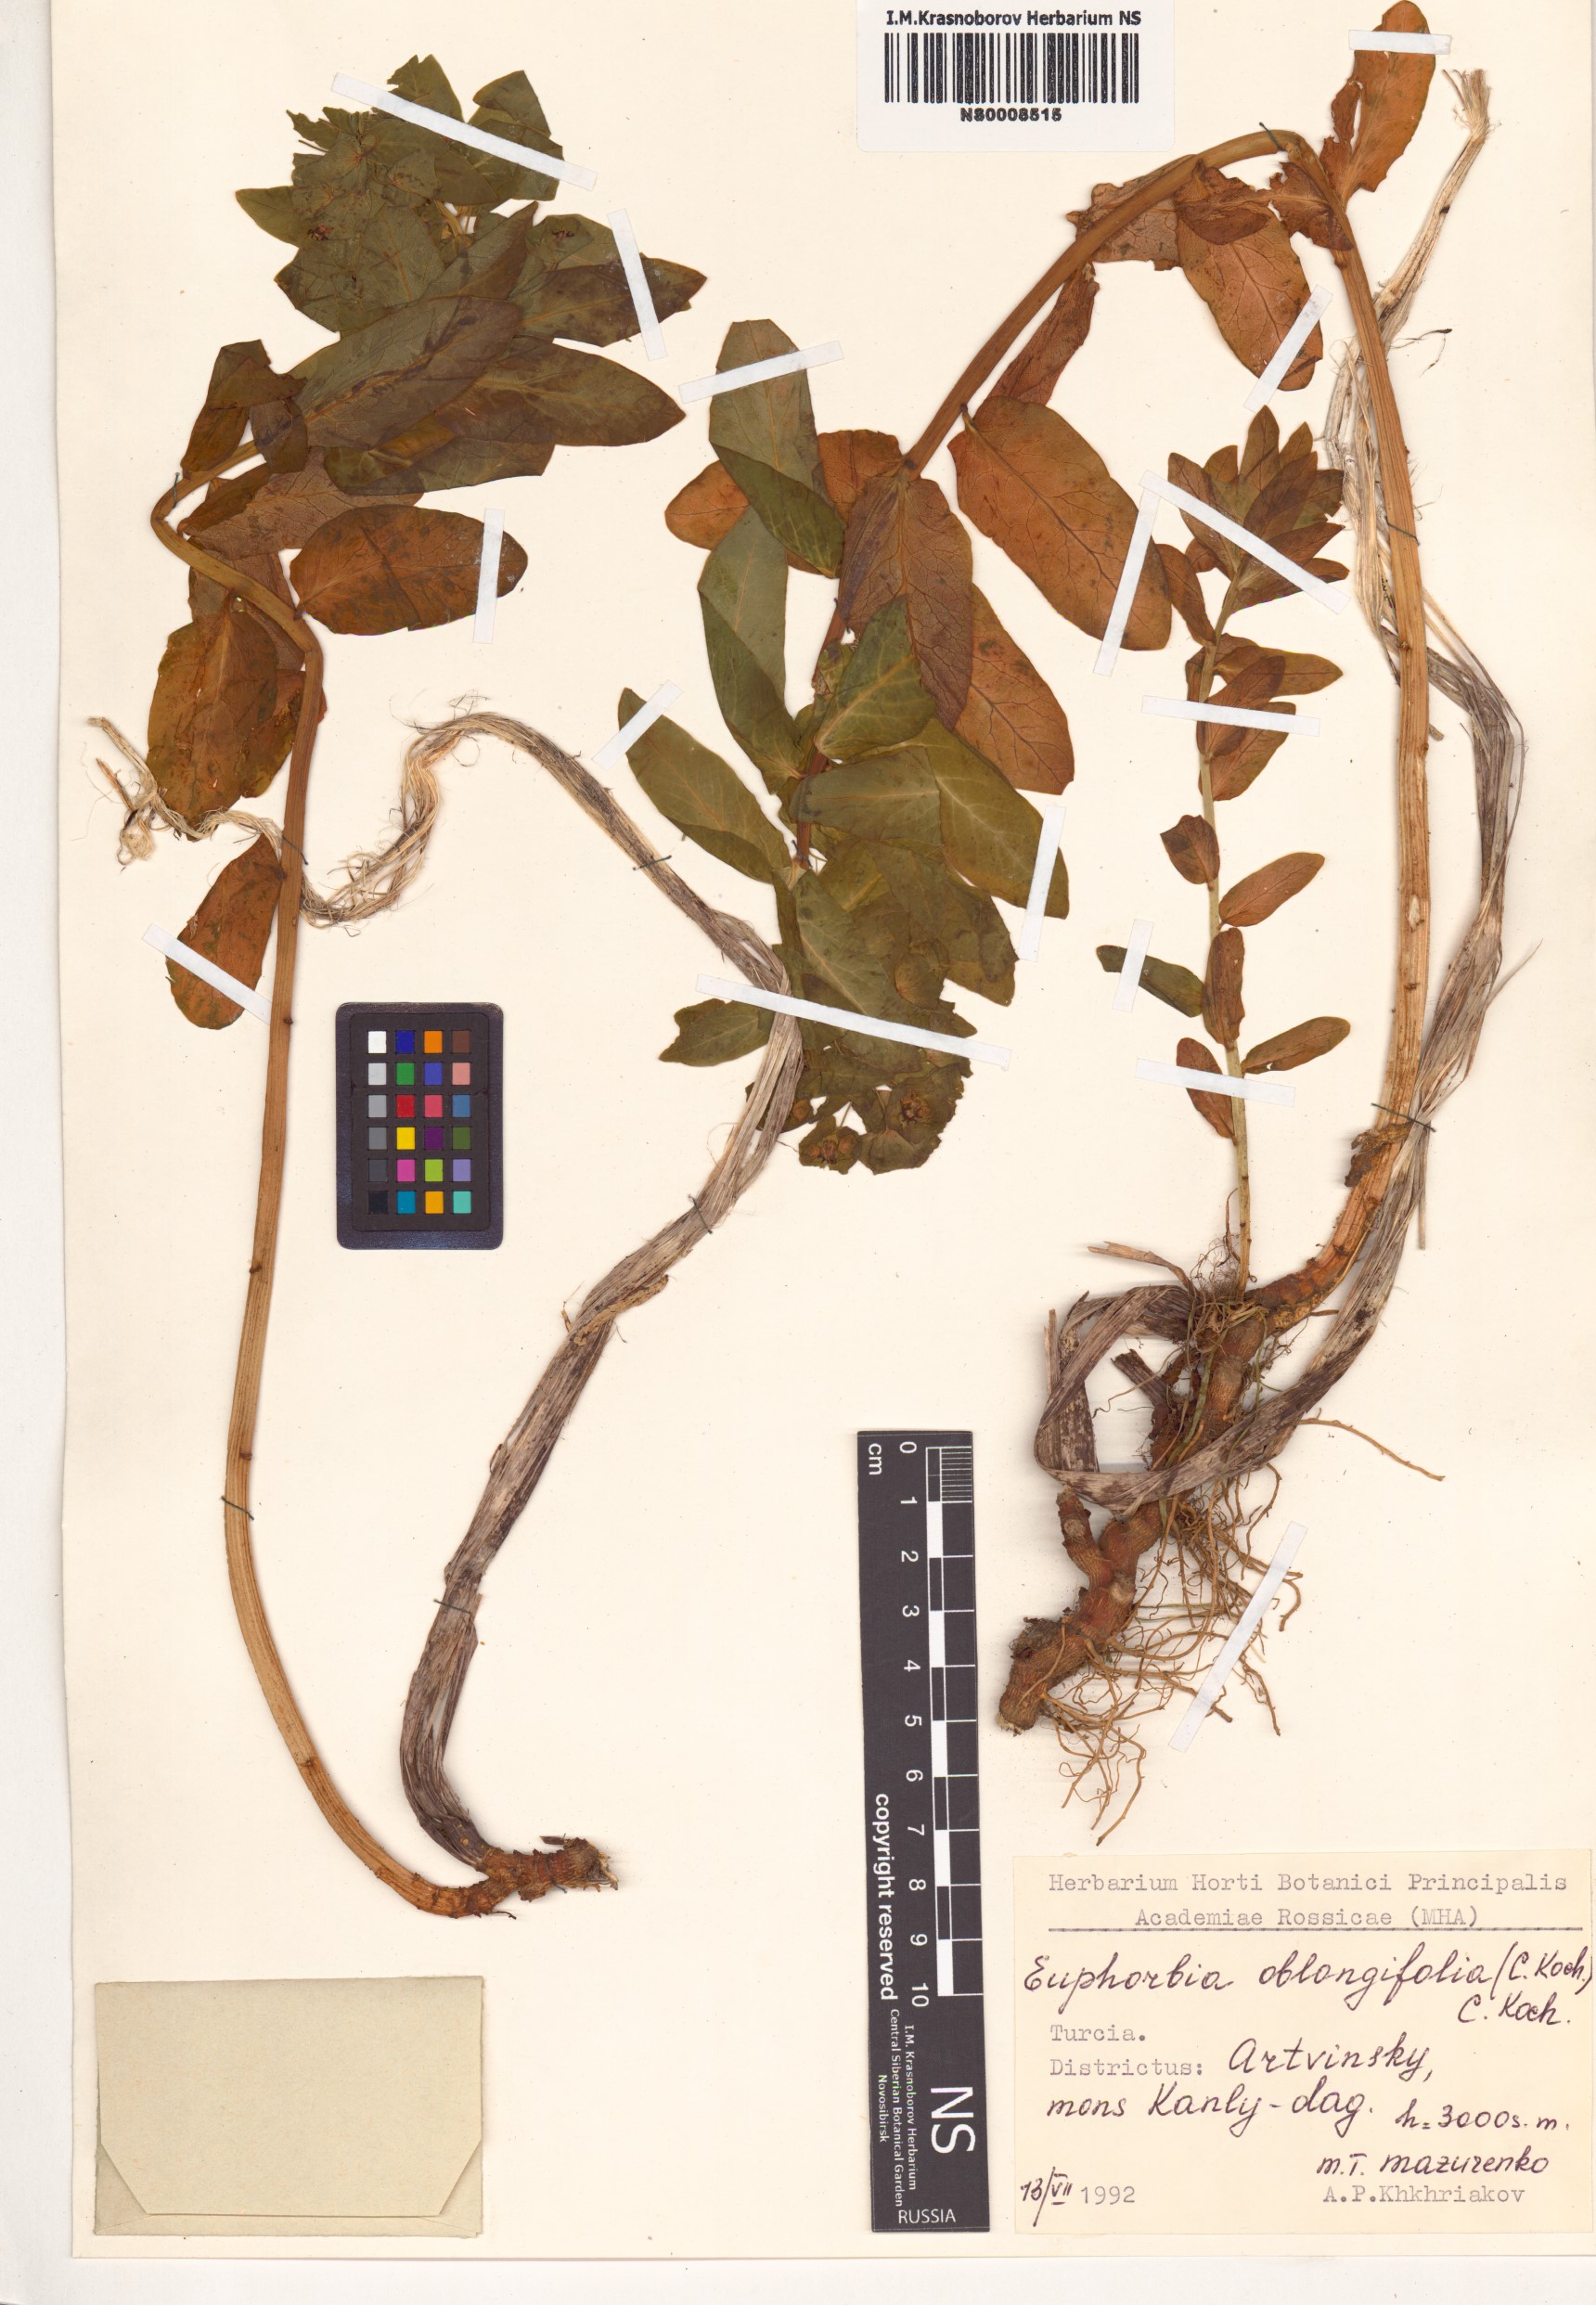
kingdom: Plantae
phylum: Tracheophyta
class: Magnoliopsida
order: Malpighiales
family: Euphorbiaceae
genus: Euphorbia
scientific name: Euphorbia oblongifolia
